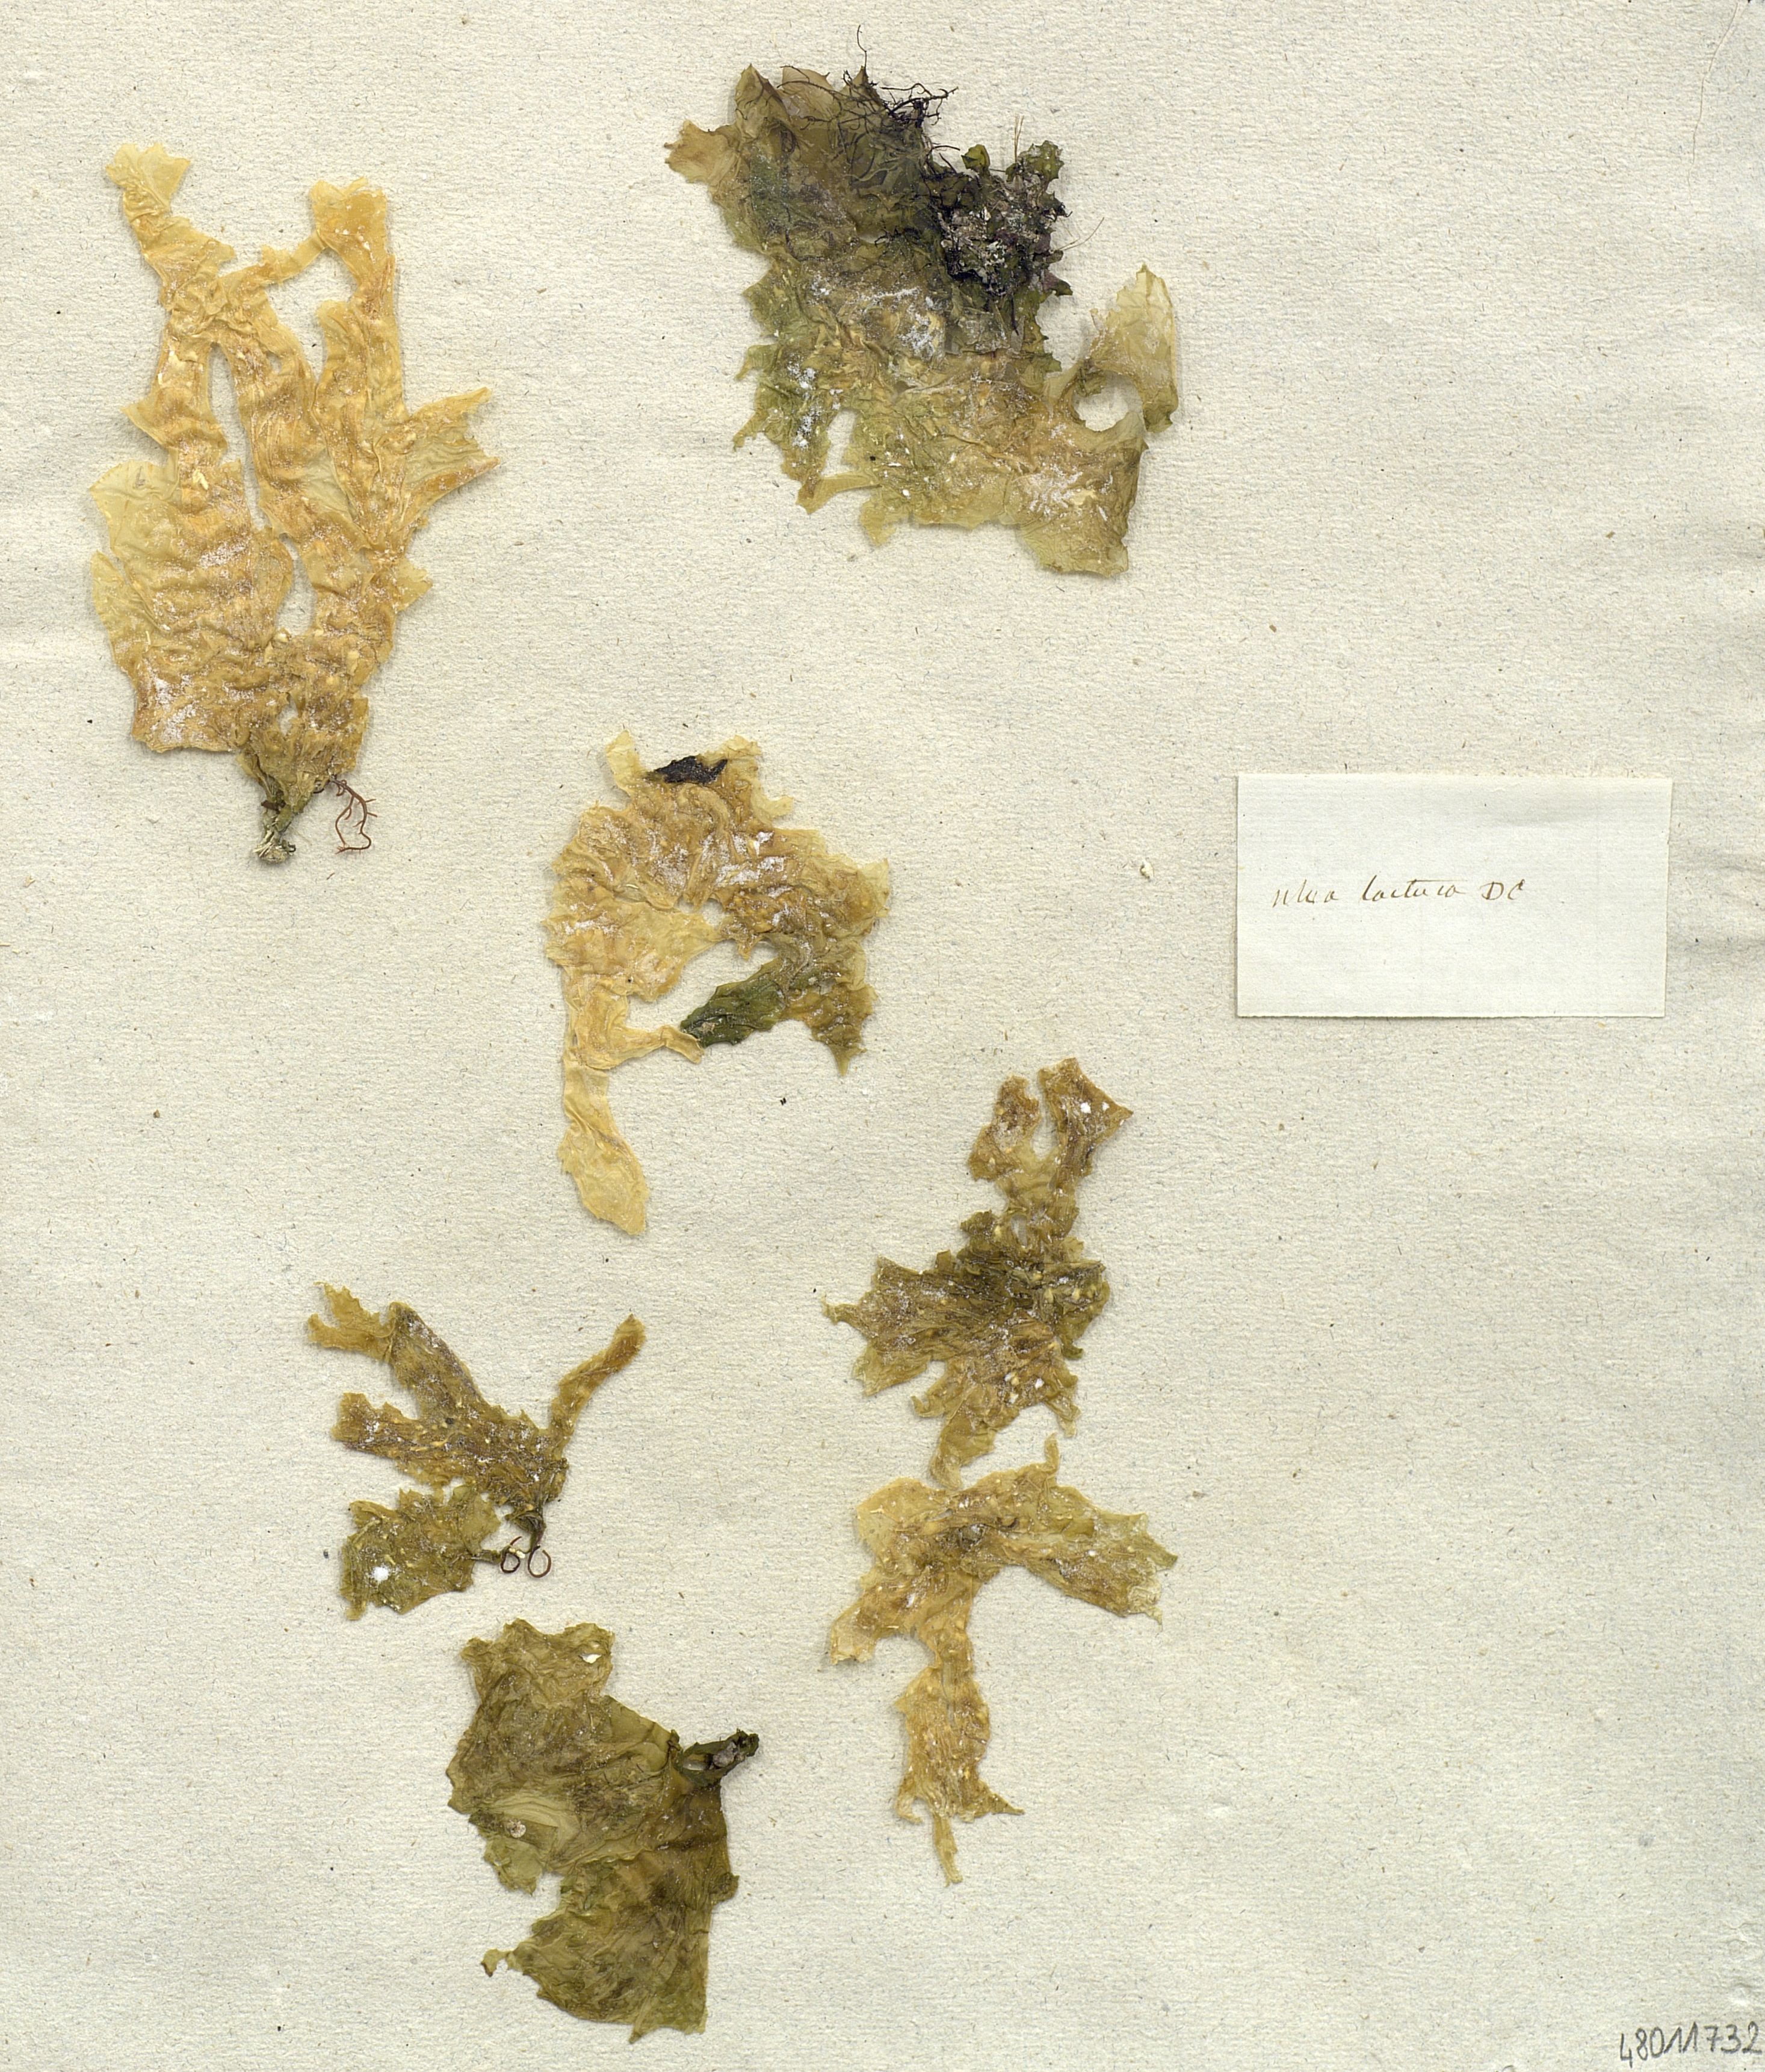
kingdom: Plantae
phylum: Chlorophyta
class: Ulvophyceae
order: Ulvales
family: Ulvaceae
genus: Ulva
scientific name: Ulva lactuca
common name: Sea lettuce
